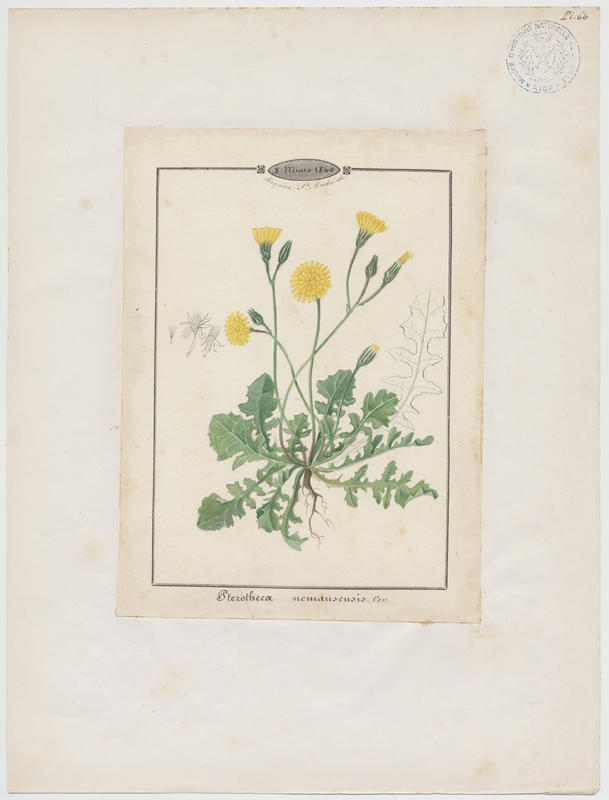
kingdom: Plantae
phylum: Tracheophyta
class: Magnoliopsida
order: Asterales
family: Asteraceae
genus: Crepis
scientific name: Crepis sancta
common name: Hawk's-beard
